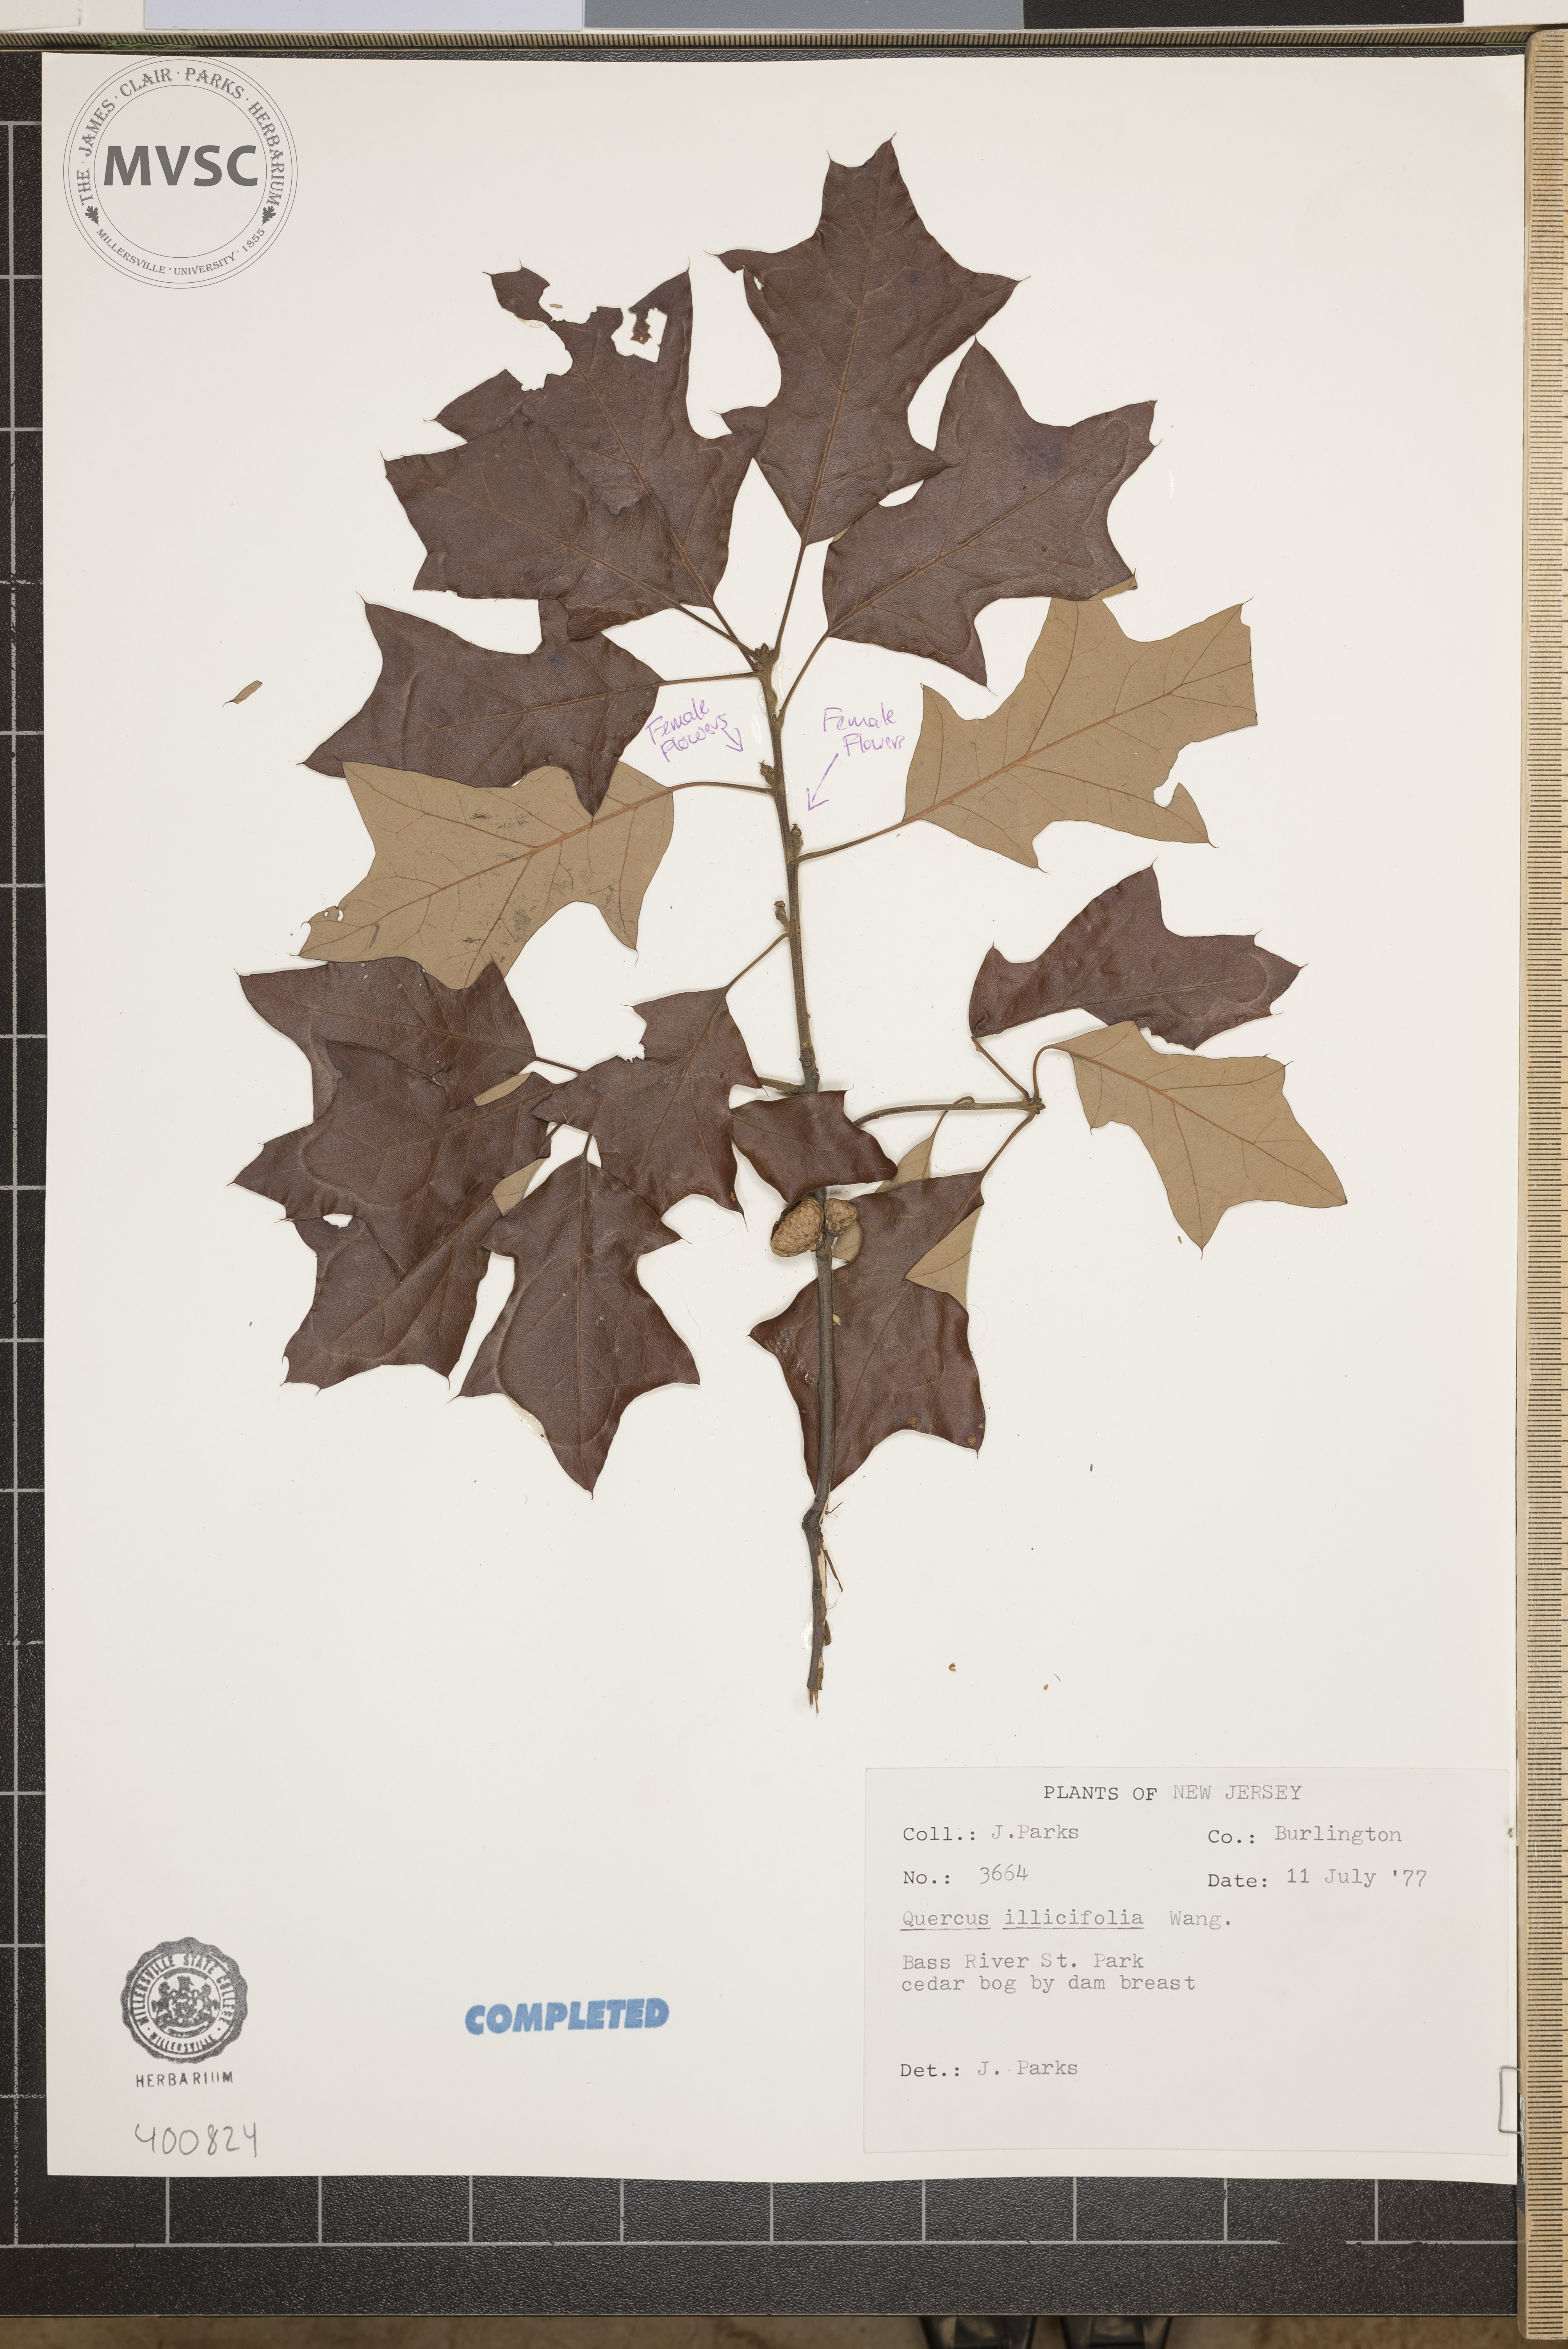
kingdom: Plantae
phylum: Tracheophyta
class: Magnoliopsida
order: Fagales
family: Fagaceae
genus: Quercus
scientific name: Quercus ilicifolia
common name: Bear oak
